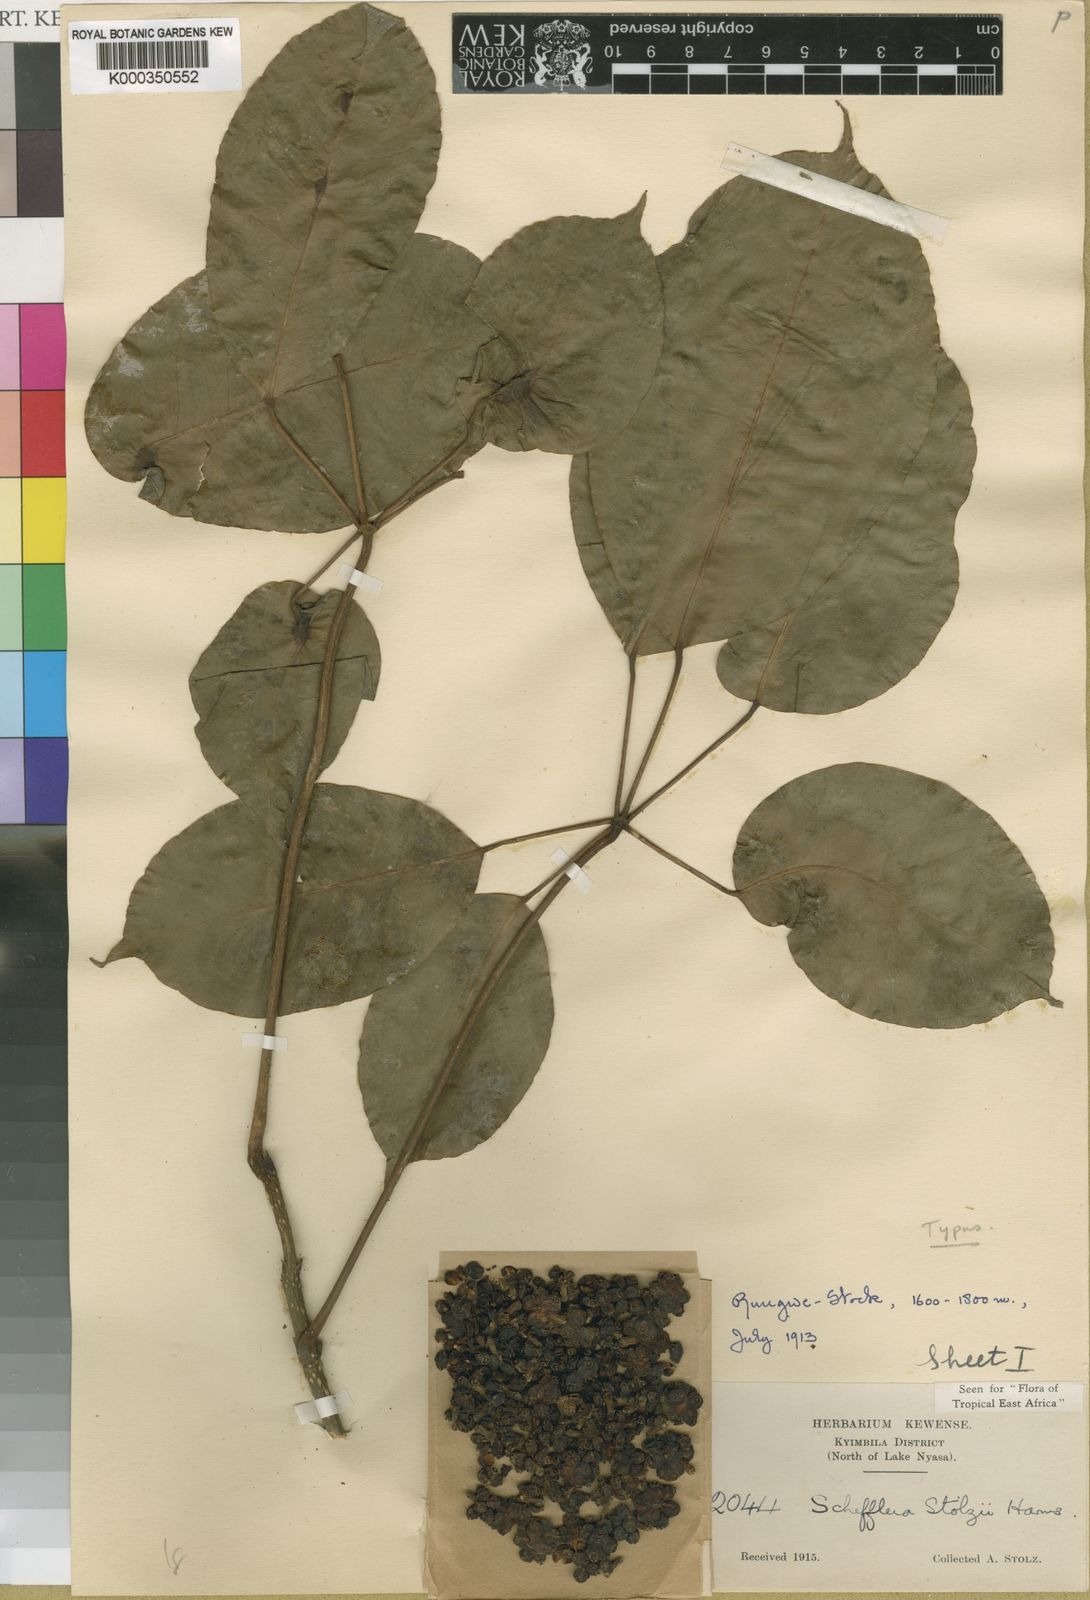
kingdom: Plantae
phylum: Tracheophyta
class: Magnoliopsida
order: Apiales
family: Araliaceae
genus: Astropanax
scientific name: Astropanax stolzii
